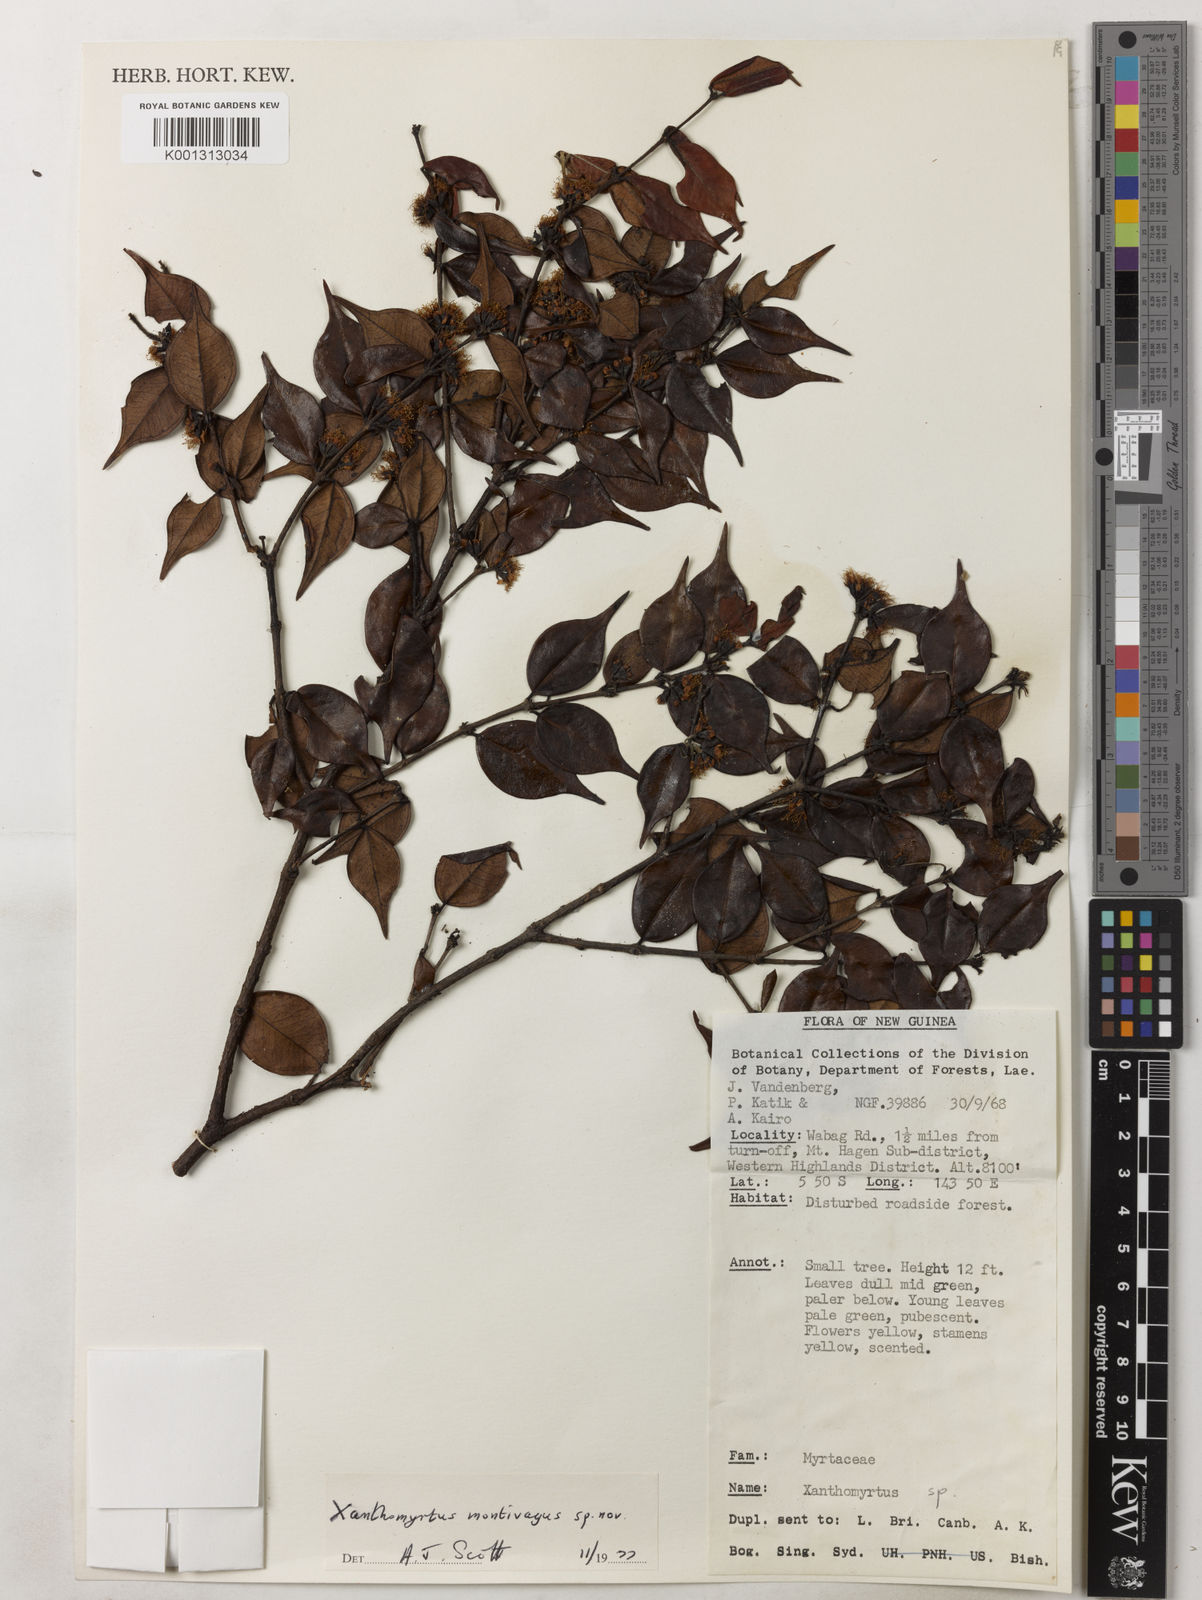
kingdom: Plantae
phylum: Tracheophyta
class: Magnoliopsida
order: Myrtales
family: Myrtaceae
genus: Xanthomyrtus
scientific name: Xanthomyrtus montivaga
